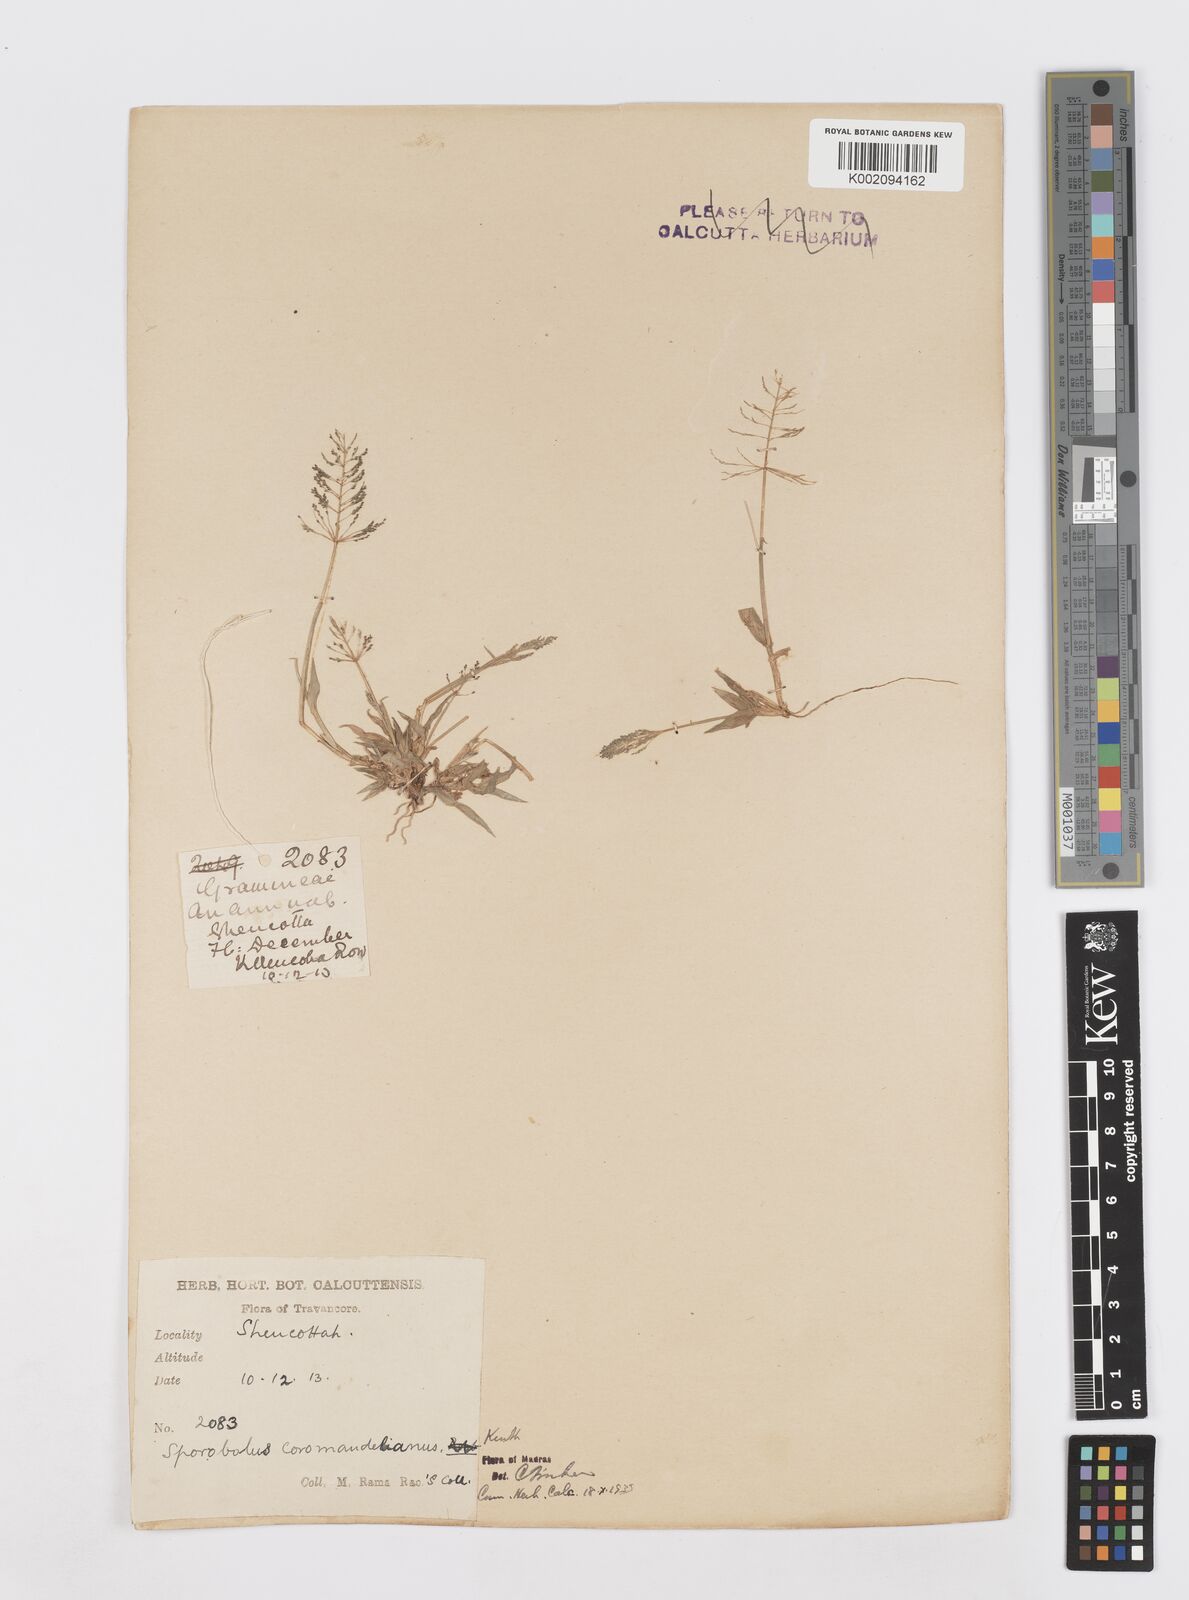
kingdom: Plantae
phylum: Tracheophyta
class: Liliopsida
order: Poales
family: Poaceae
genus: Sporobolus
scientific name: Sporobolus coromandelianus
